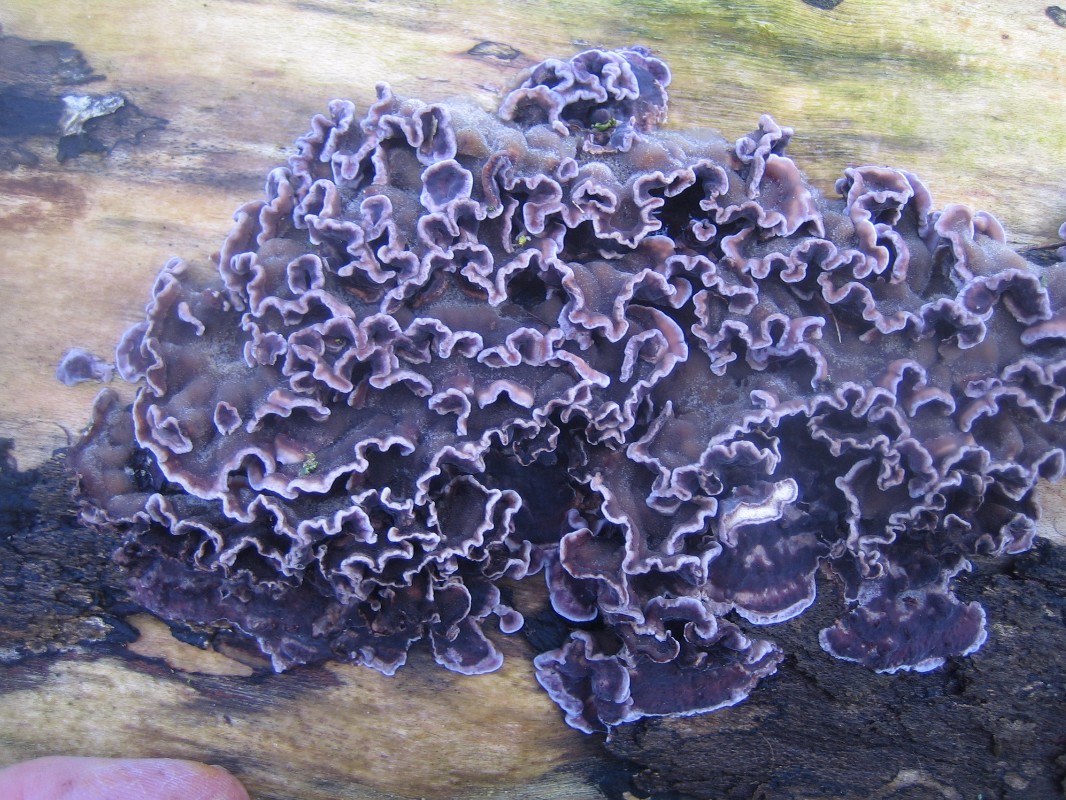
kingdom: Fungi
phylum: Basidiomycota
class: Agaricomycetes
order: Agaricales
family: Cyphellaceae
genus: Chondrostereum
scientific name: Chondrostereum purpureum
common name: purpurlædersvamp
